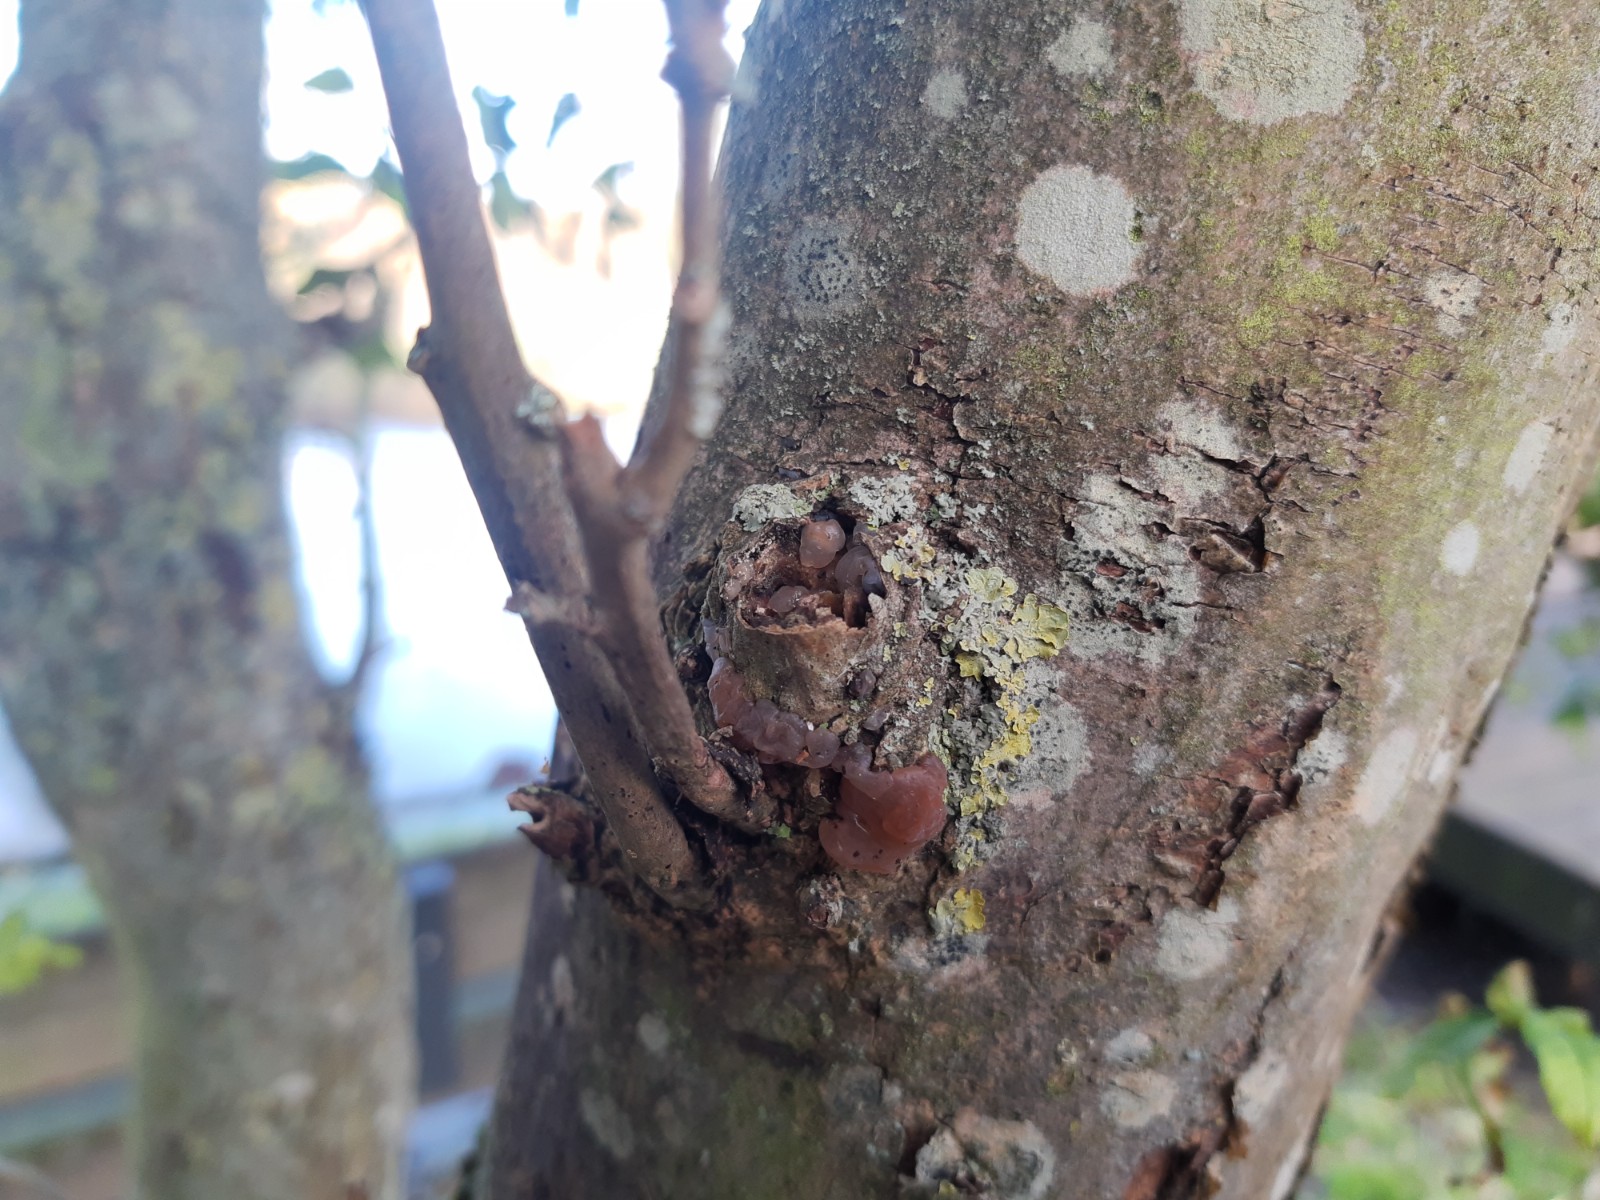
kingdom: Fungi
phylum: Basidiomycota
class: Agaricomycetes
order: Auriculariales
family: Hyaloriaceae
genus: Myxarium
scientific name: Myxarium hyalinum
